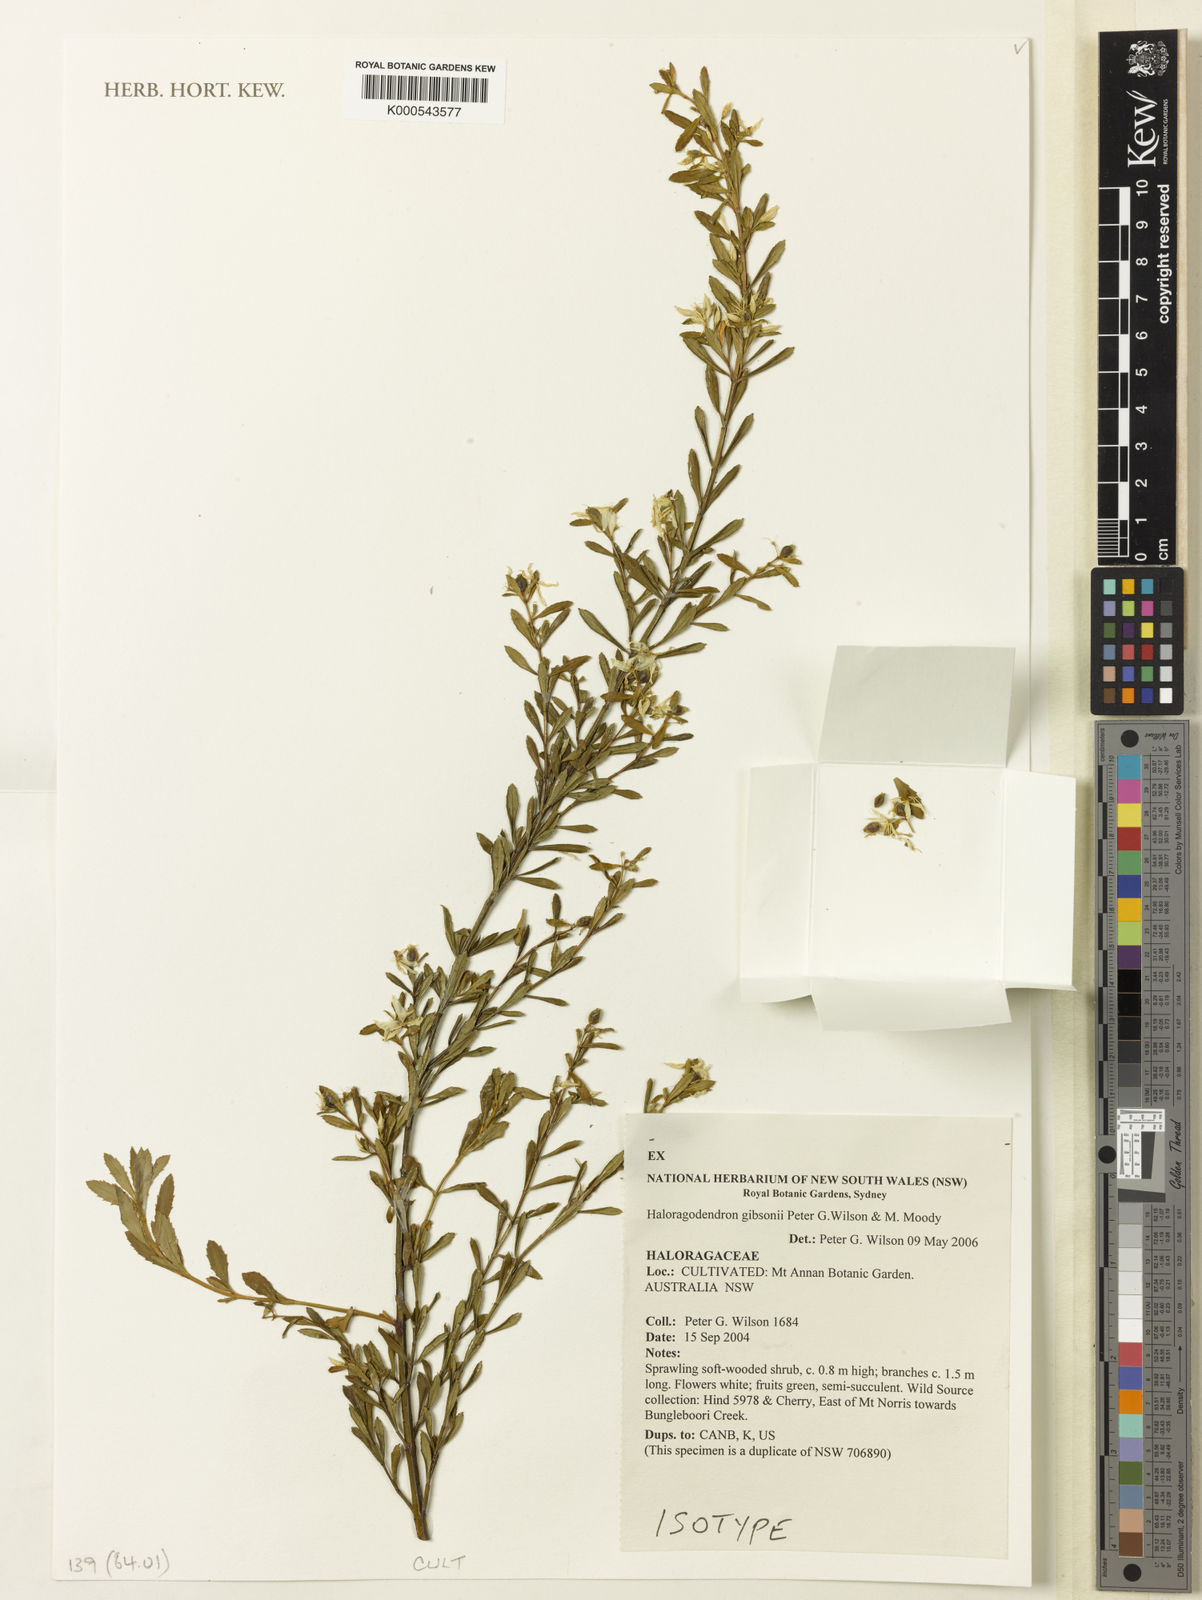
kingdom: Plantae
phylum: Tracheophyta
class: Magnoliopsida
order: Saxifragales
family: Haloragaceae
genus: Glischrocaryon
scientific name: Glischrocaryon gibsonii
